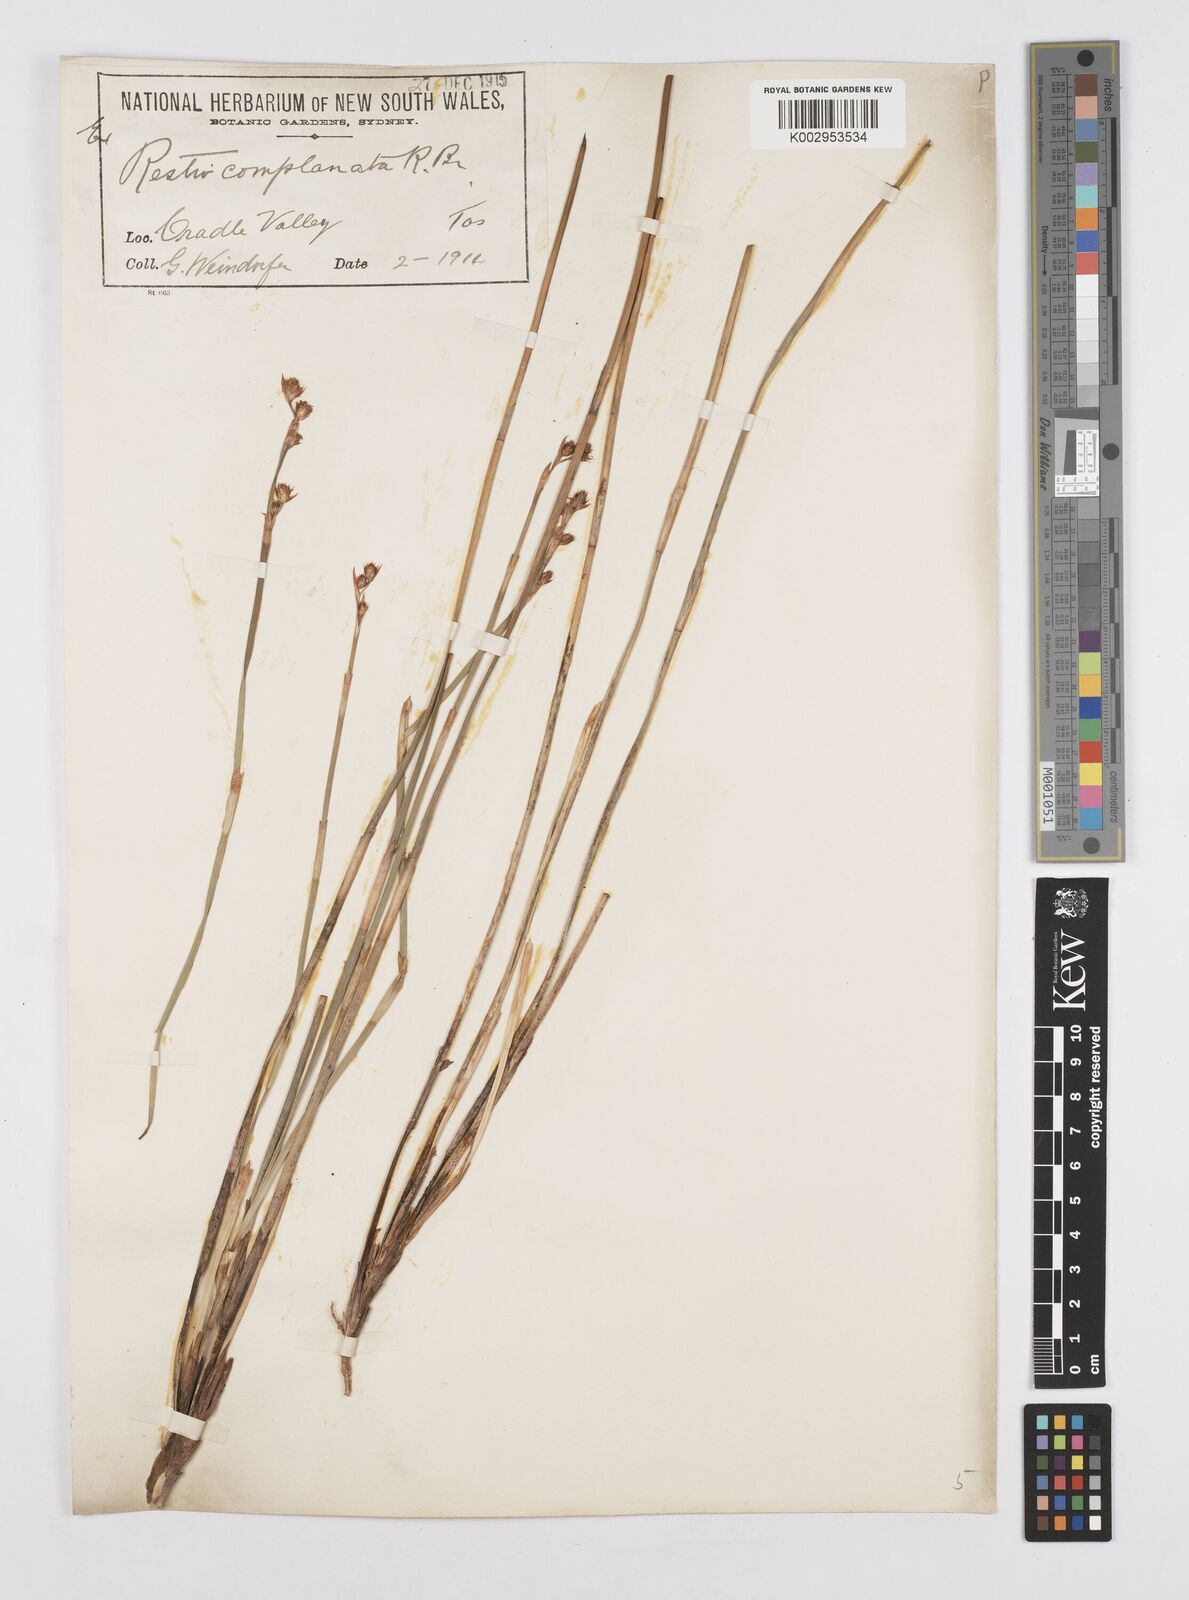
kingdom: Plantae
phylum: Tracheophyta
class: Liliopsida
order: Poales
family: Restionaceae
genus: Eurychorda
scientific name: Eurychorda complanata
